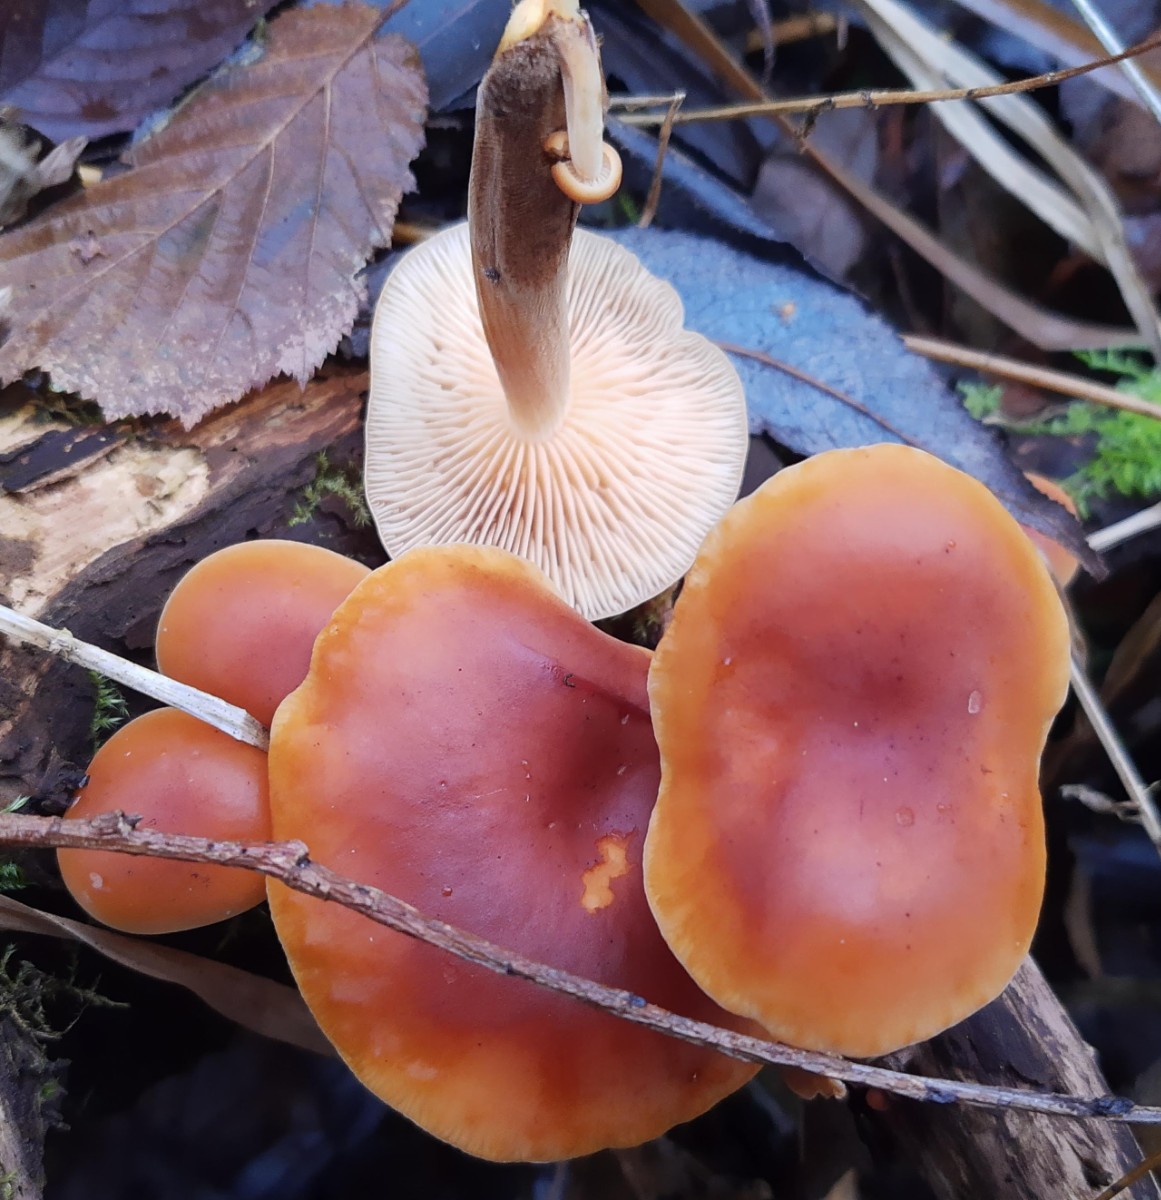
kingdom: Fungi
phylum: Basidiomycota
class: Agaricomycetes
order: Agaricales
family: Physalacriaceae
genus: Flammulina
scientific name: Flammulina velutipes
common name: gul fløjlsfod
